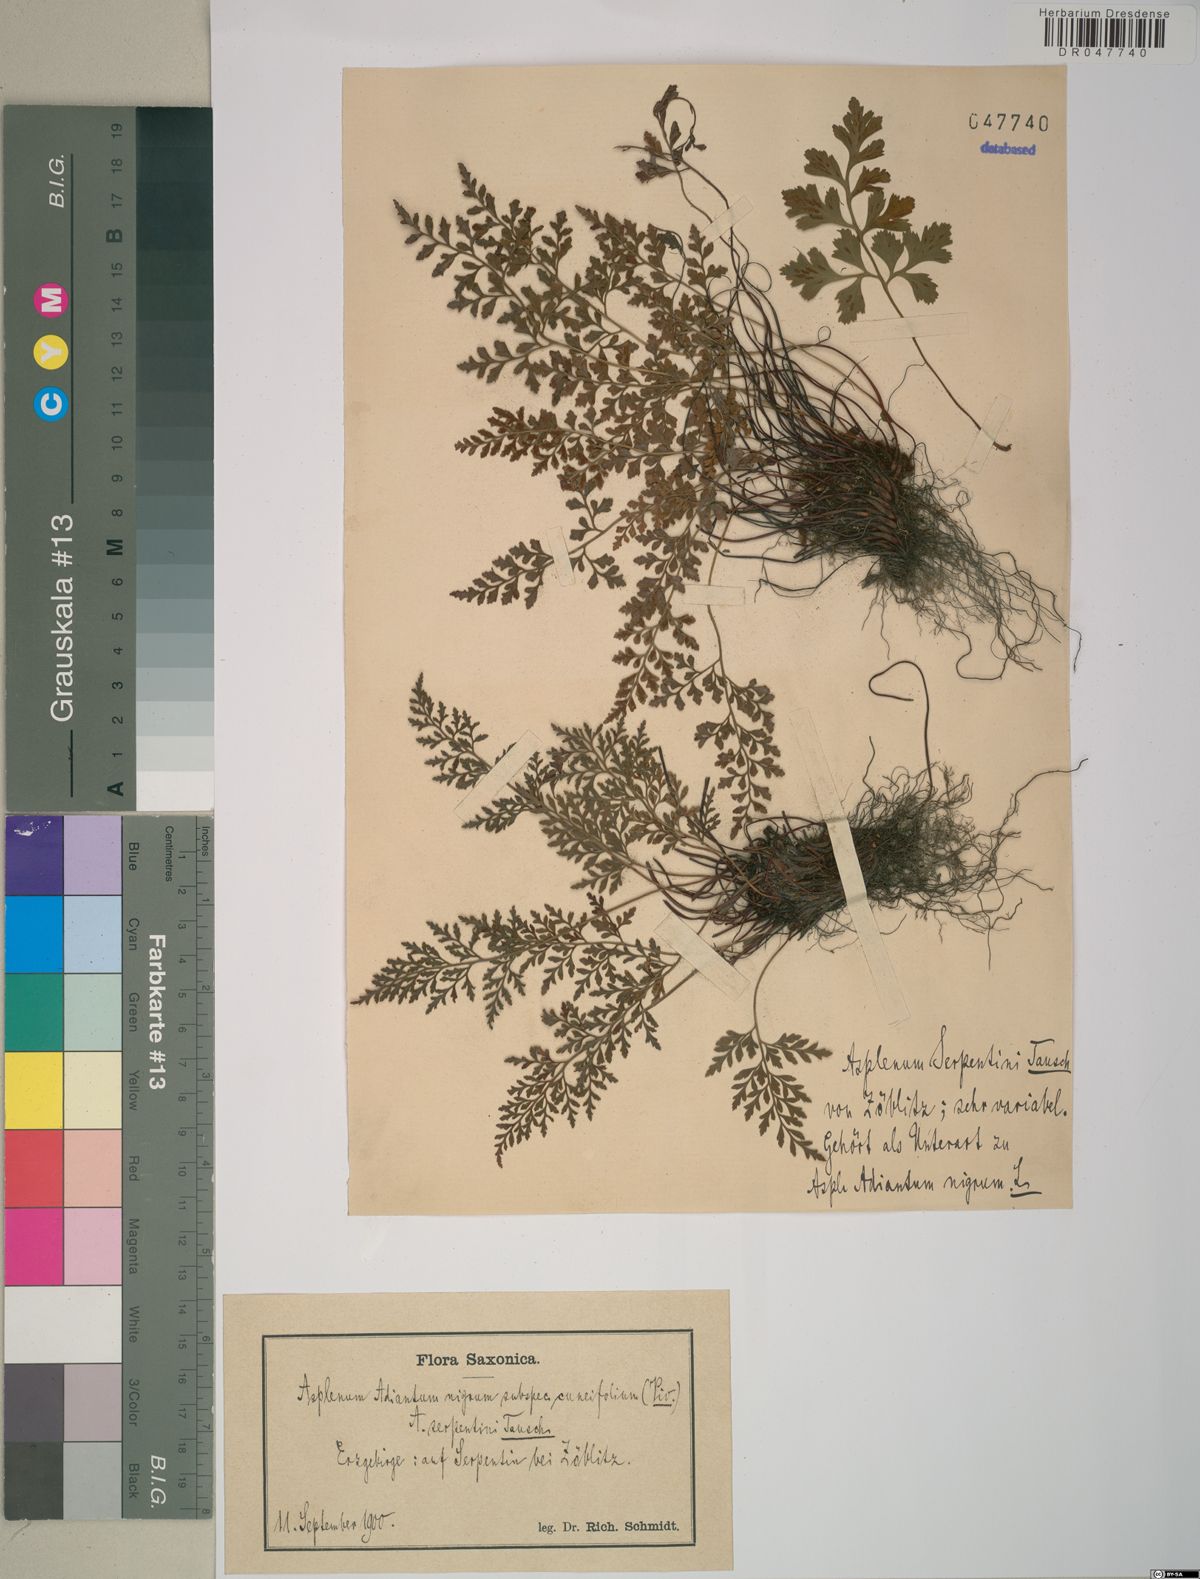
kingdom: Plantae
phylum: Tracheophyta
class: Polypodiopsida
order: Polypodiales
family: Aspleniaceae
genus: Asplenium
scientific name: Asplenium cuneifolium
